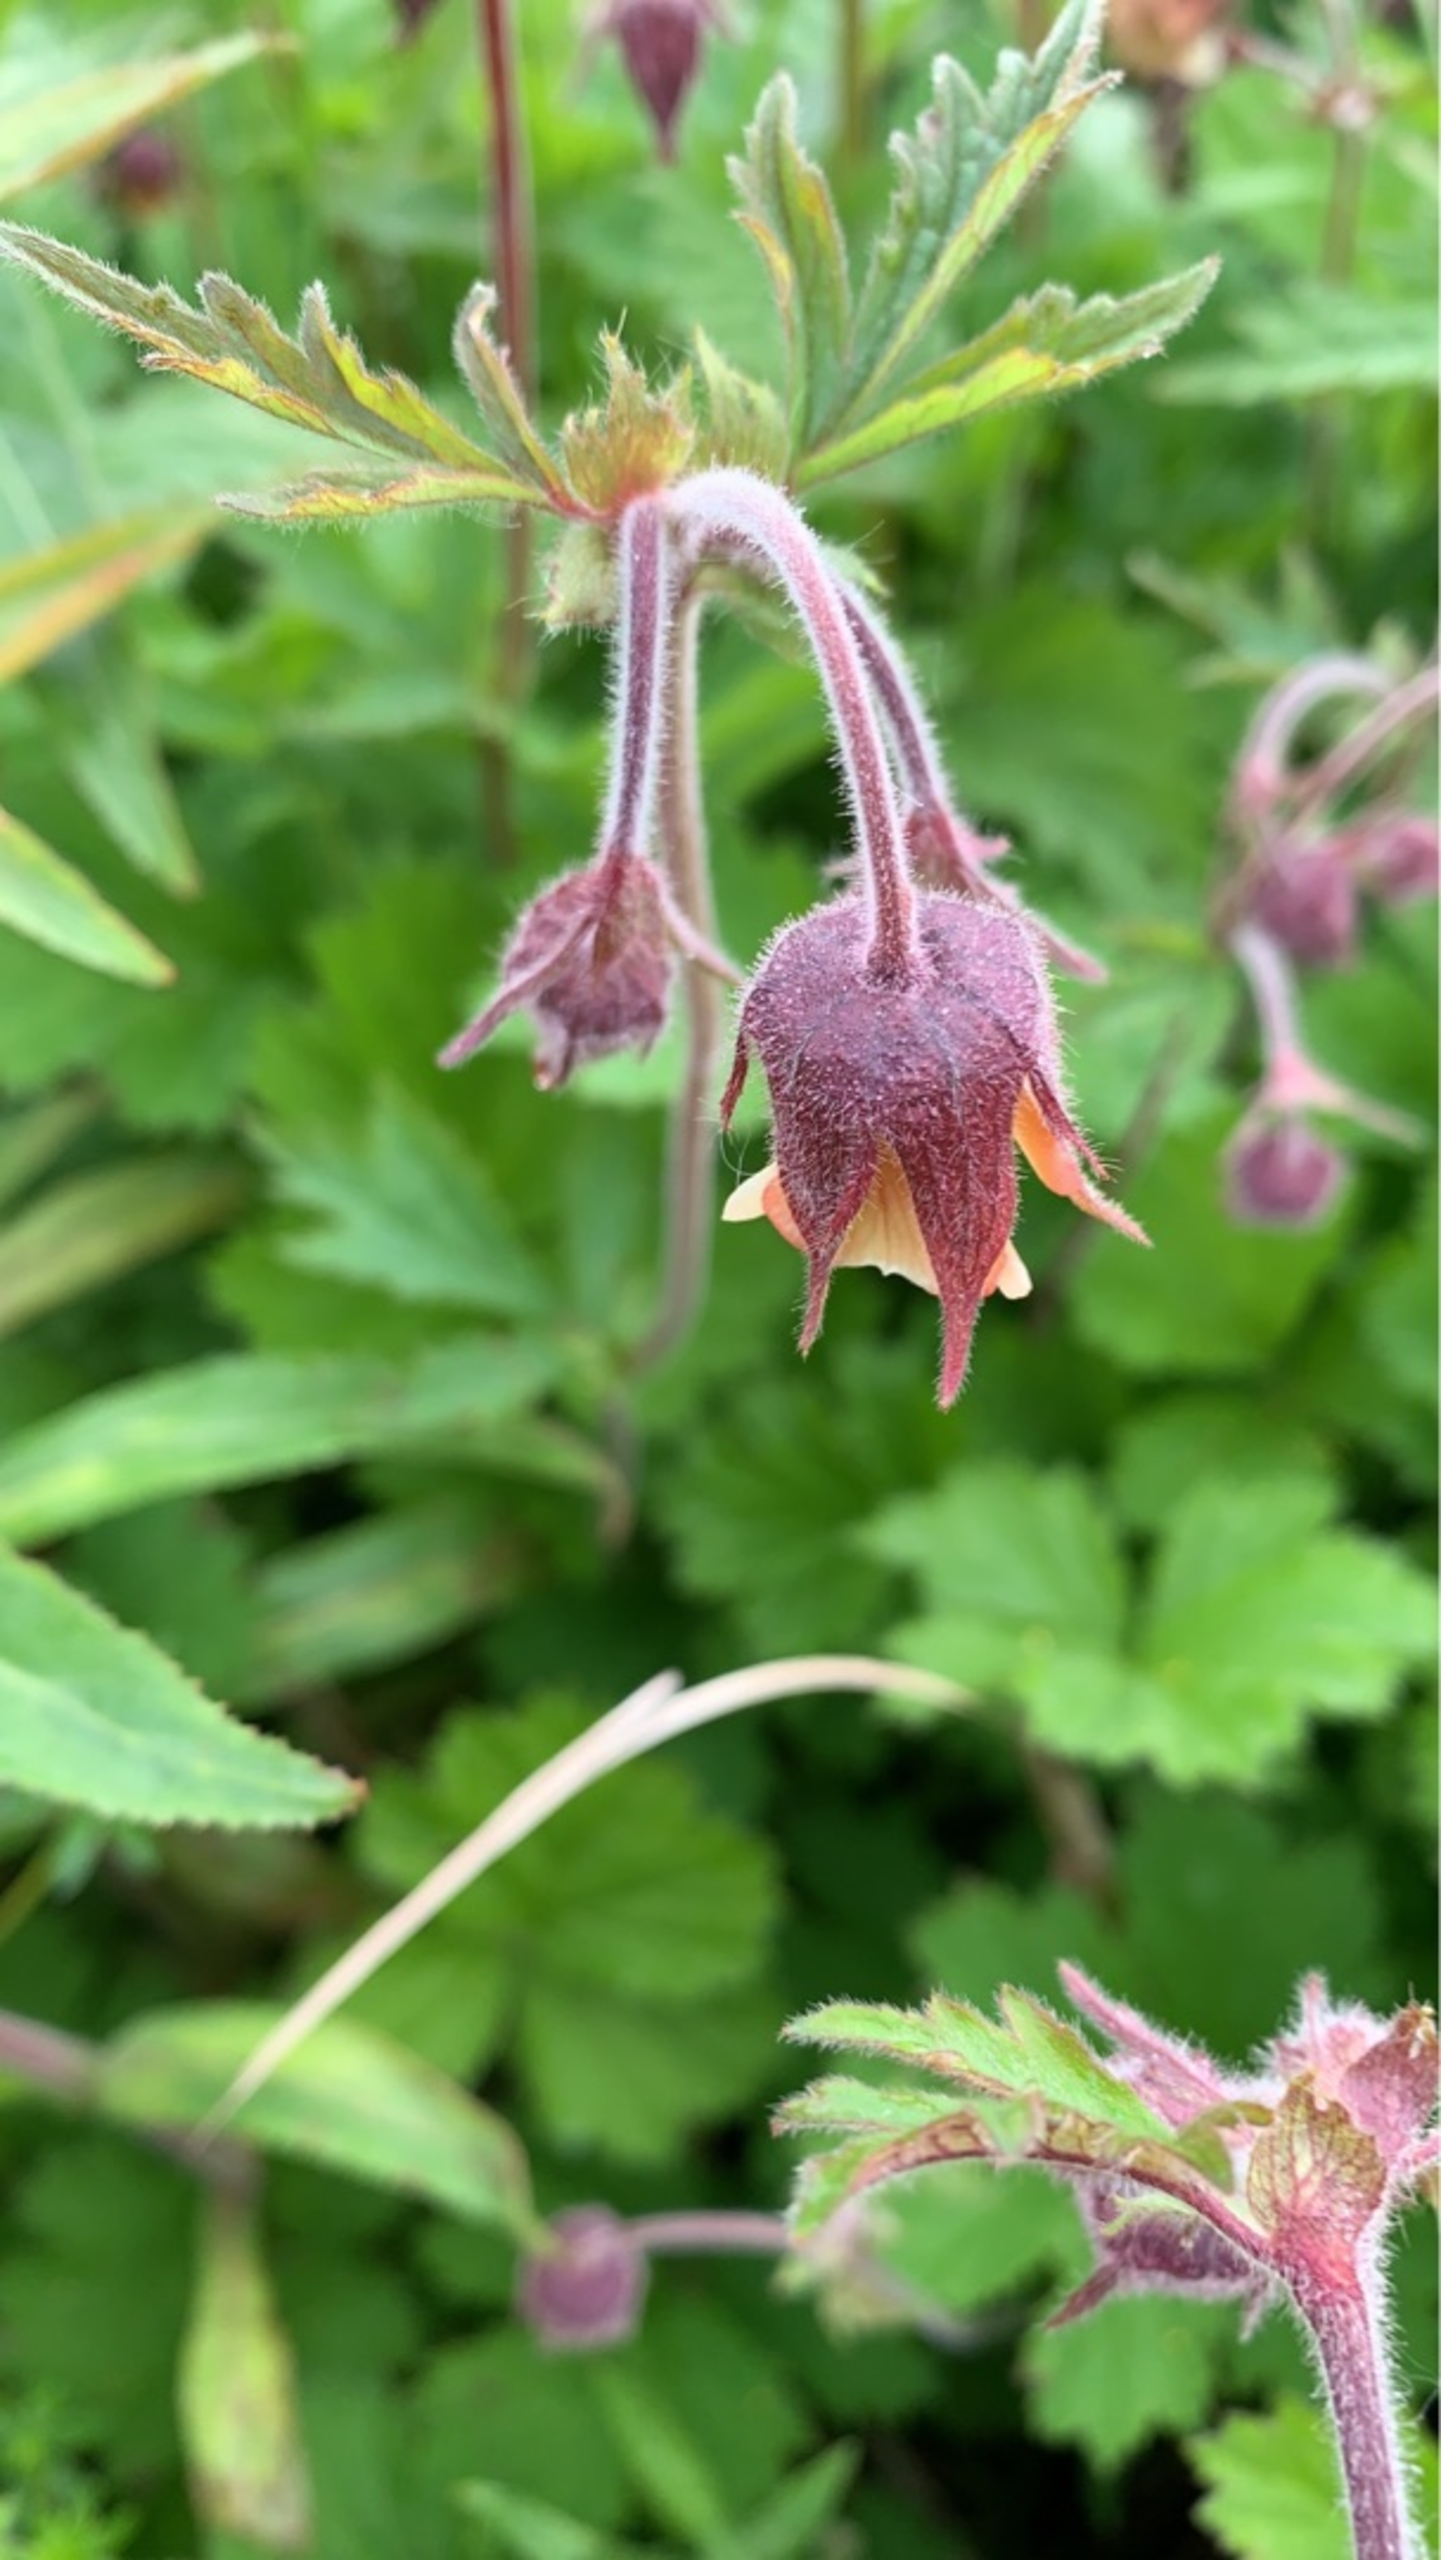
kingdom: Plantae
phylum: Tracheophyta
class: Magnoliopsida
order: Rosales
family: Rosaceae
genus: Geum
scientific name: Geum rivale
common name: Eng-nellikerod
